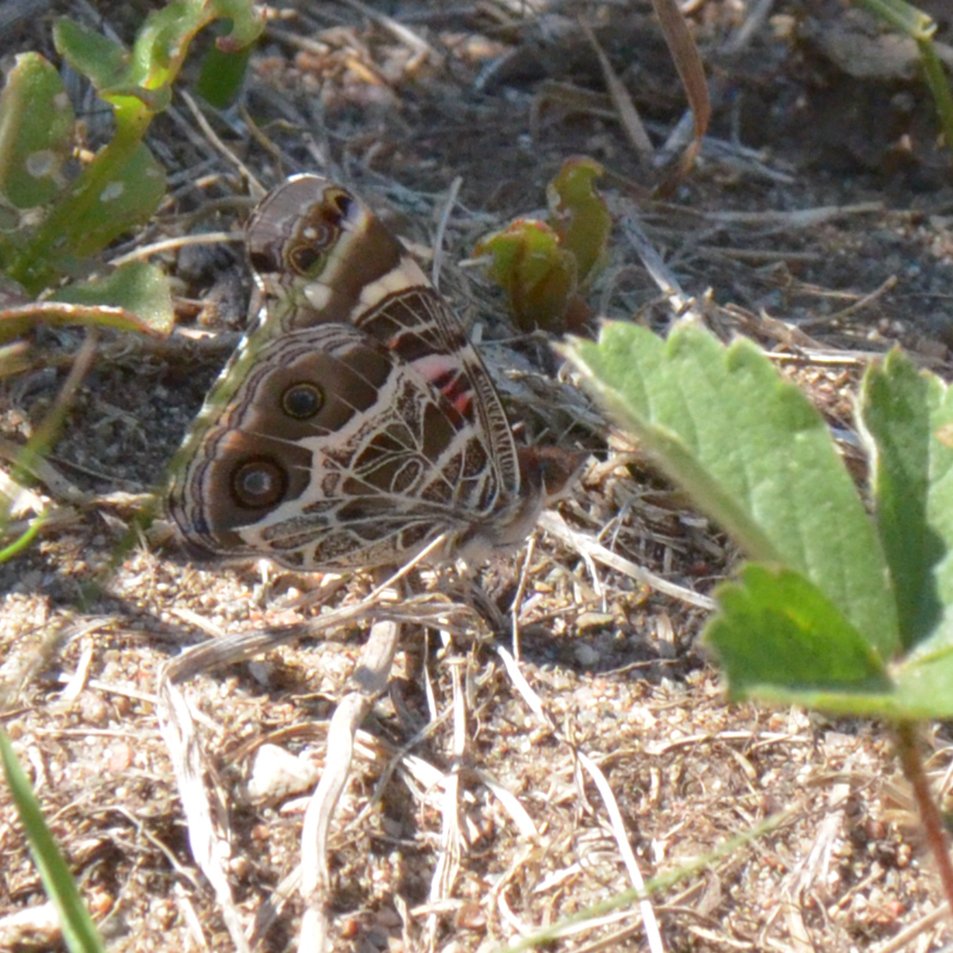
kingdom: Animalia
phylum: Arthropoda
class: Insecta
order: Lepidoptera
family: Nymphalidae
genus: Vanessa
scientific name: Vanessa virginiensis
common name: American Lady
